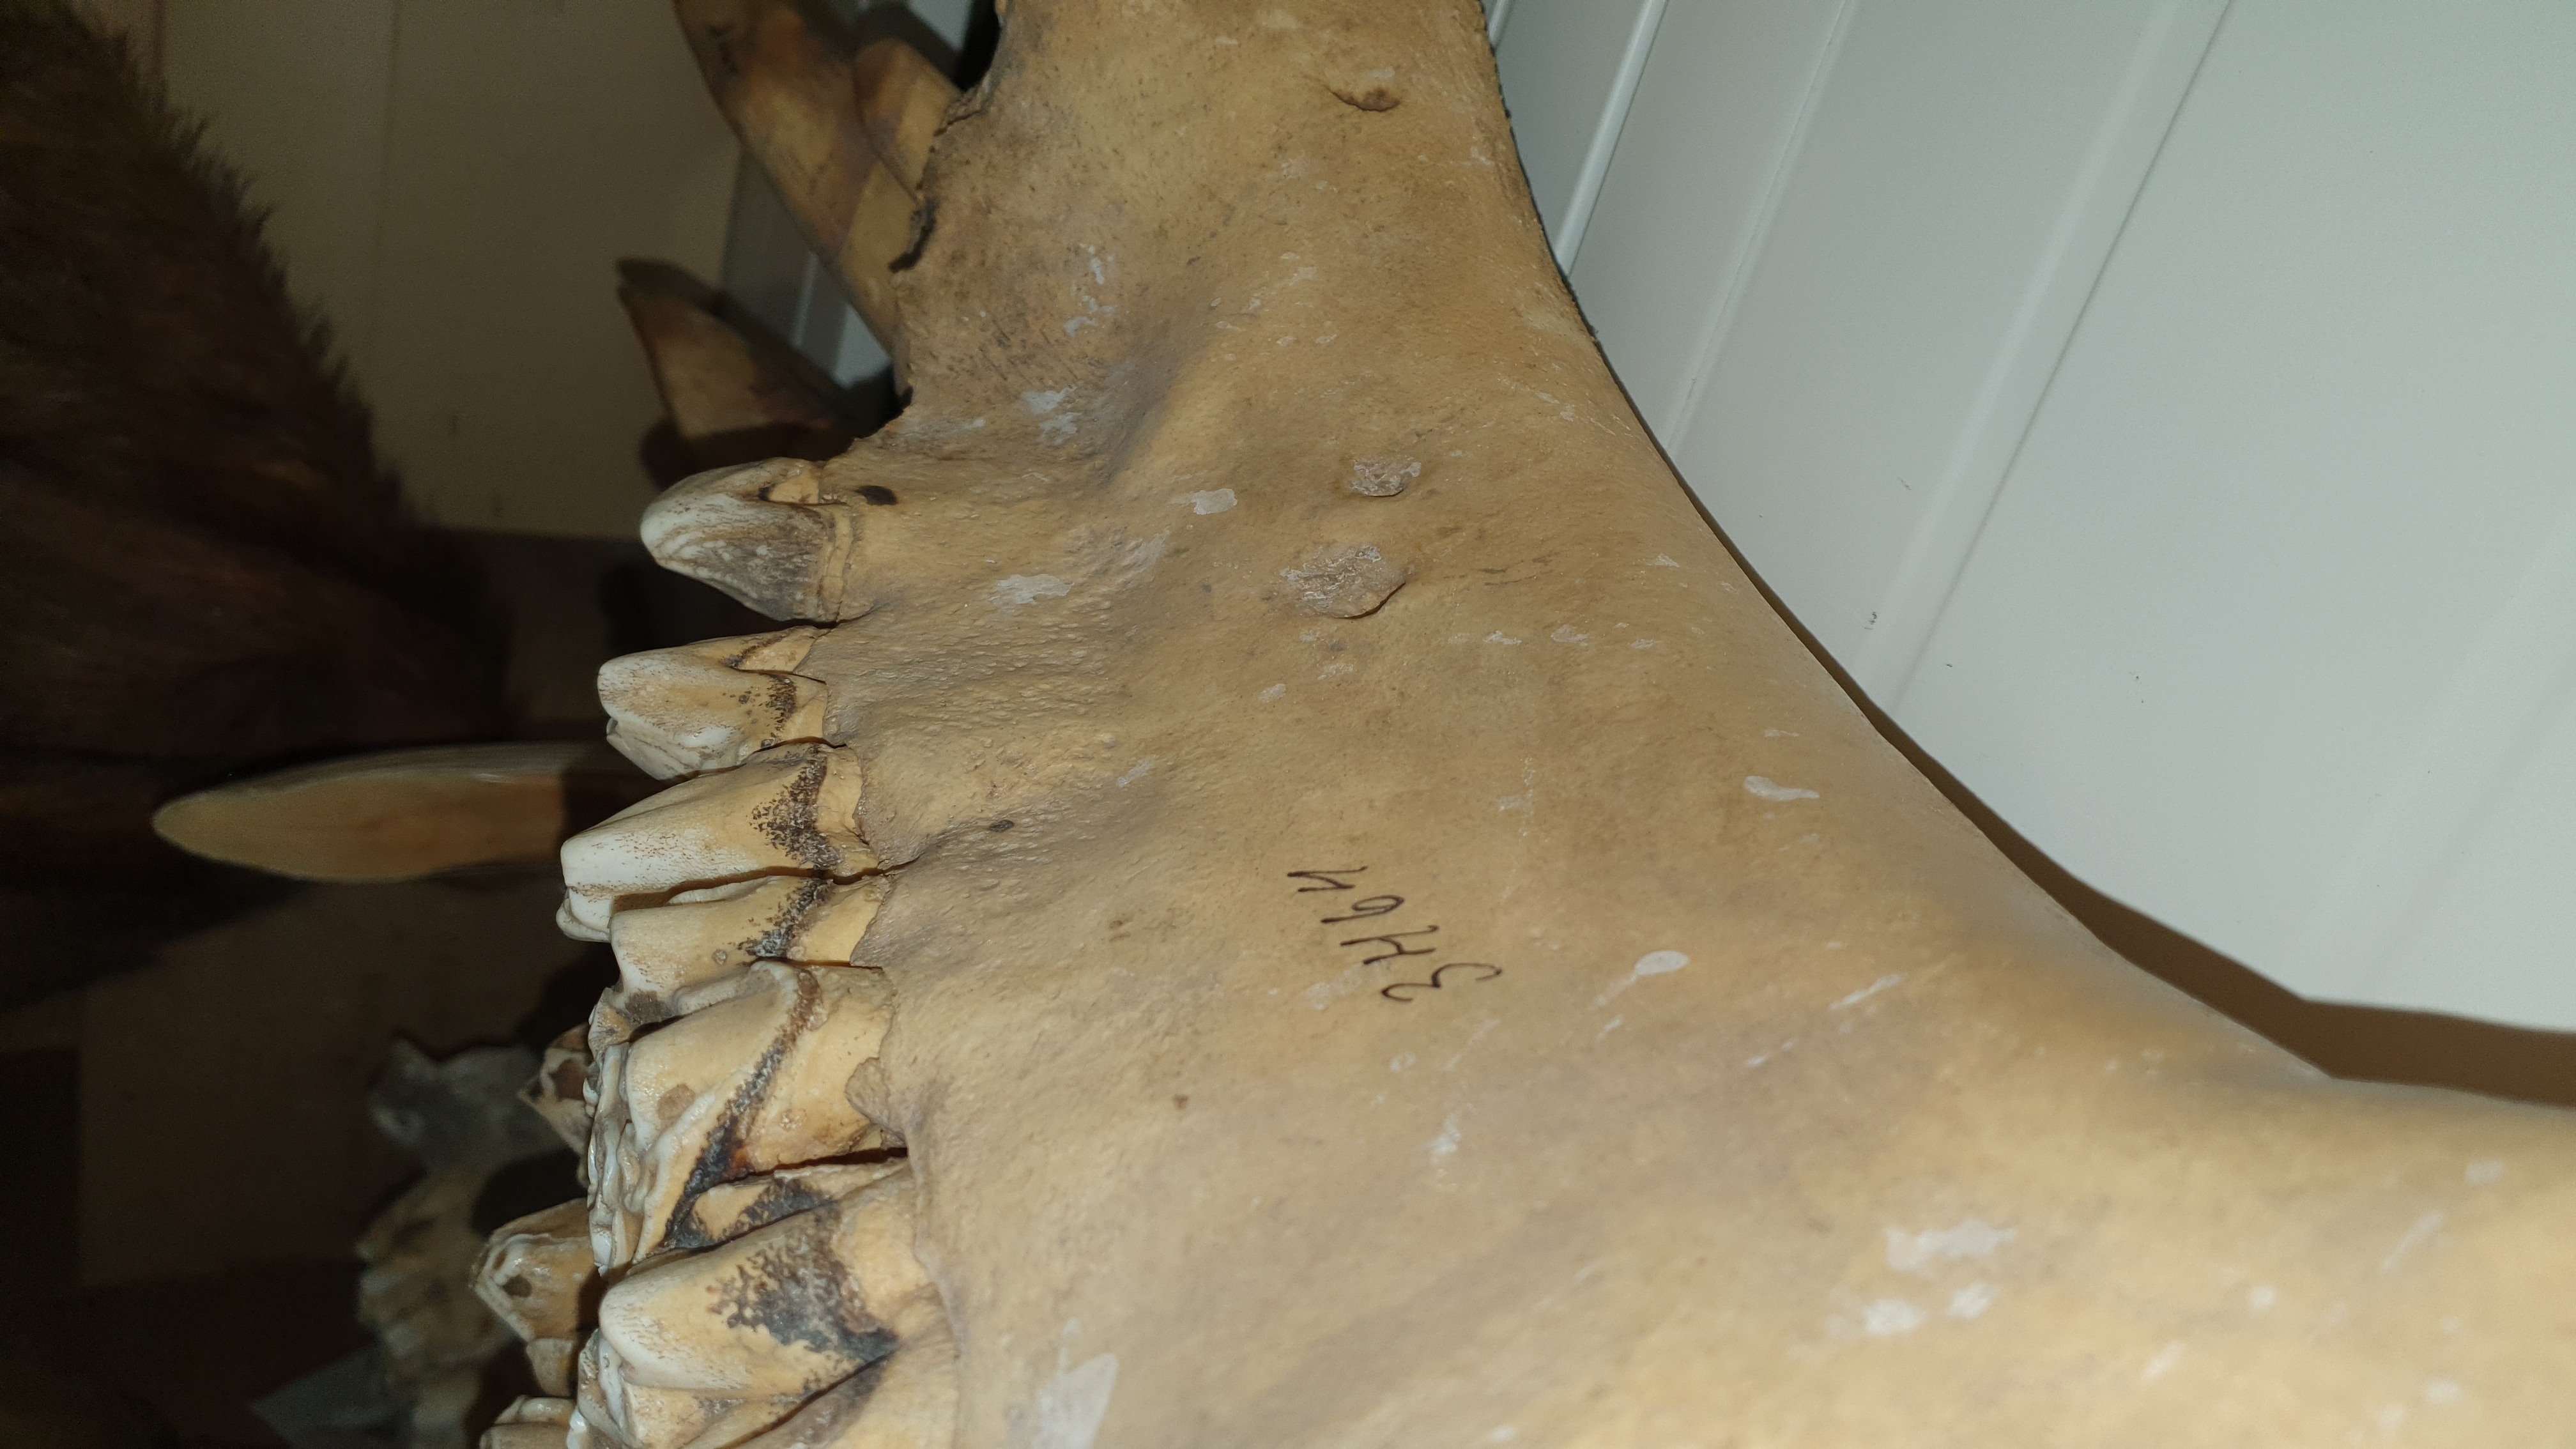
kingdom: Animalia
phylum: Chordata
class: Mammalia
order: Artiodactyla
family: Hippopotamidae
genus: Hippopotamus
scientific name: Hippopotamus amphibius
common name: Common hippopotamus
